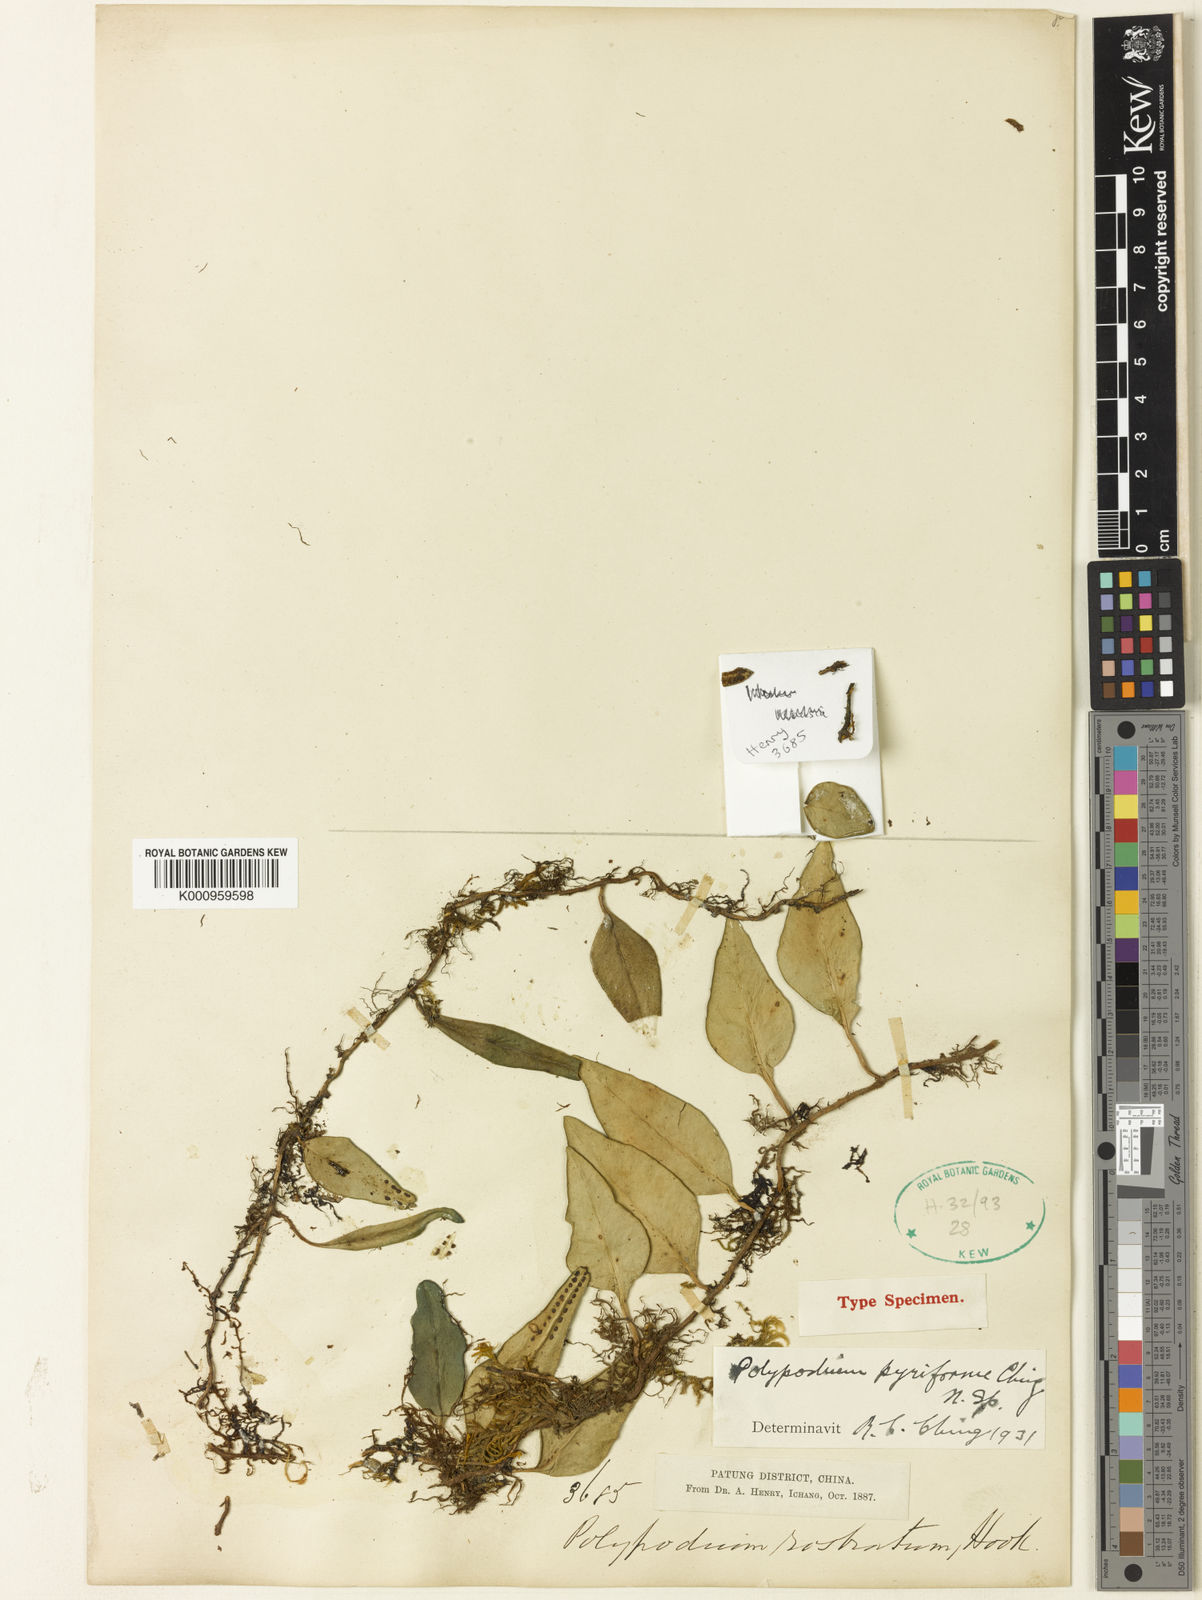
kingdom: Plantae
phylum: Tracheophyta
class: Polypodiopsida
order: Polypodiales
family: Polypodiaceae
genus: Lepisorus
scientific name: Lepisorus pyriformis
